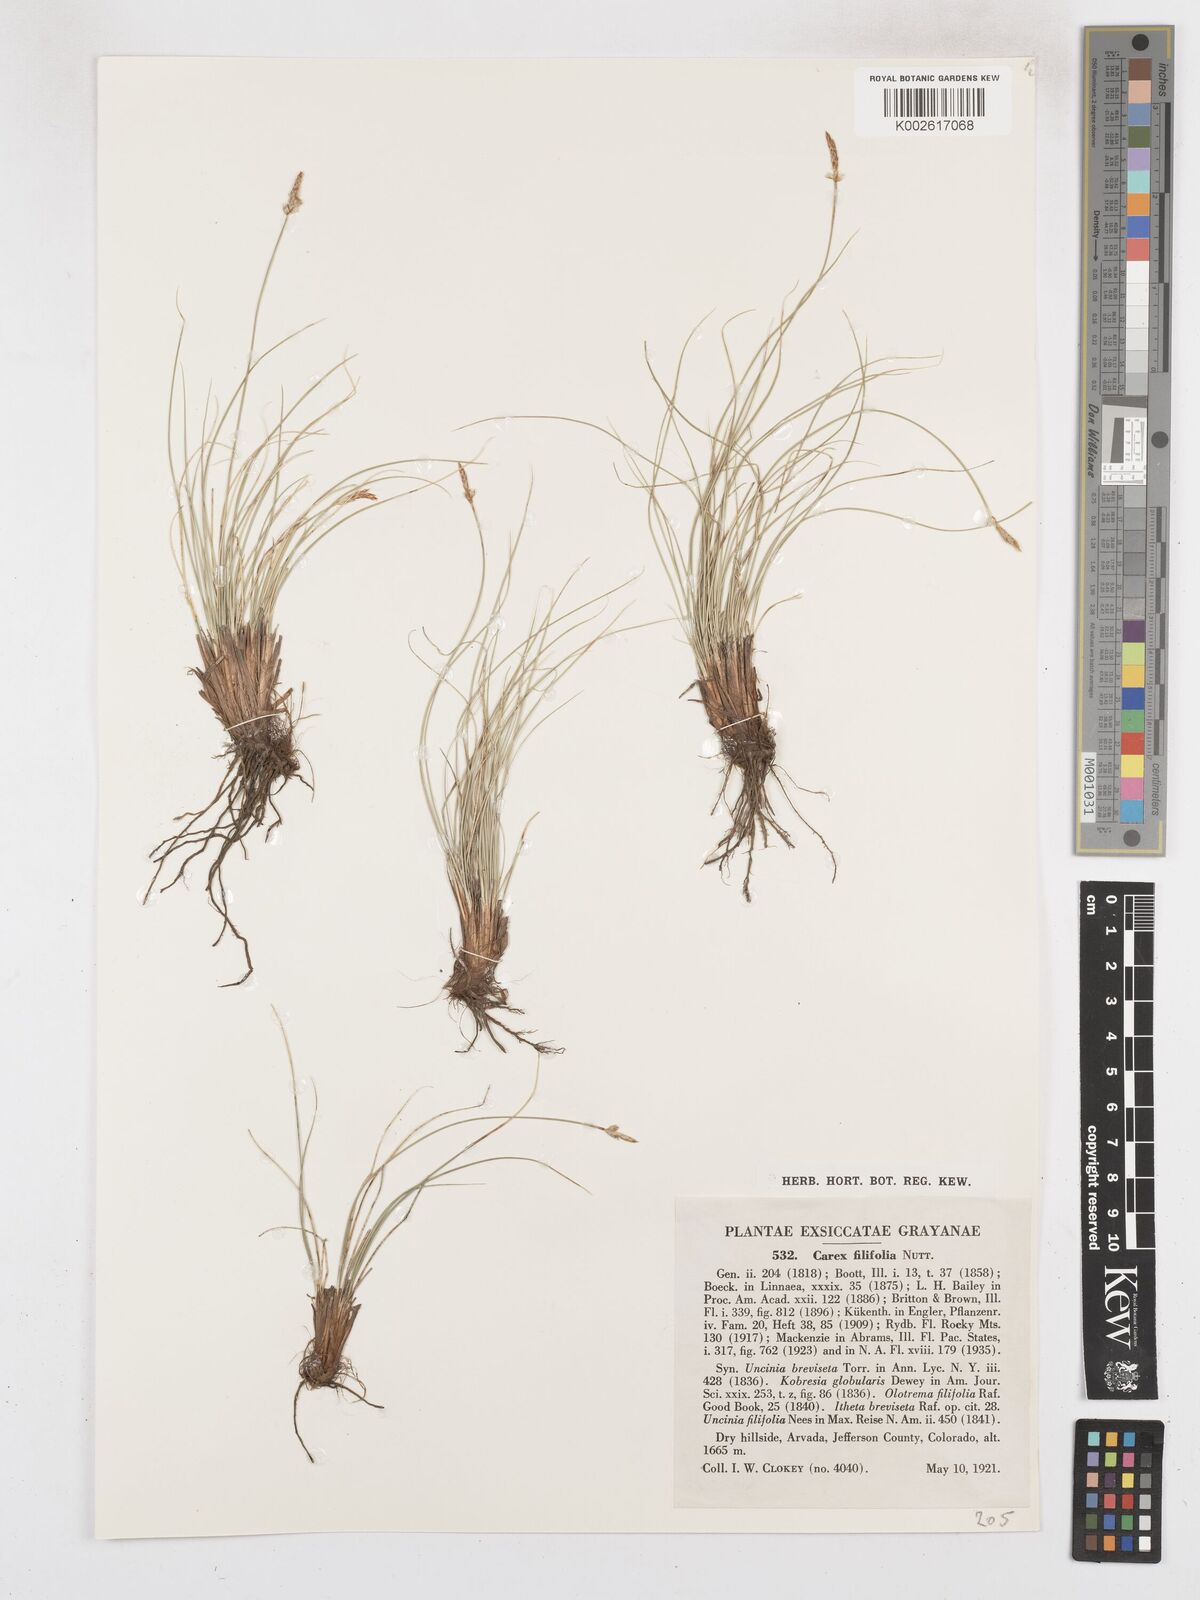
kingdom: Plantae
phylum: Tracheophyta
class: Liliopsida
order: Poales
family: Cyperaceae
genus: Carex
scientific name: Carex filifolia
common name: Threadleaf sedge
